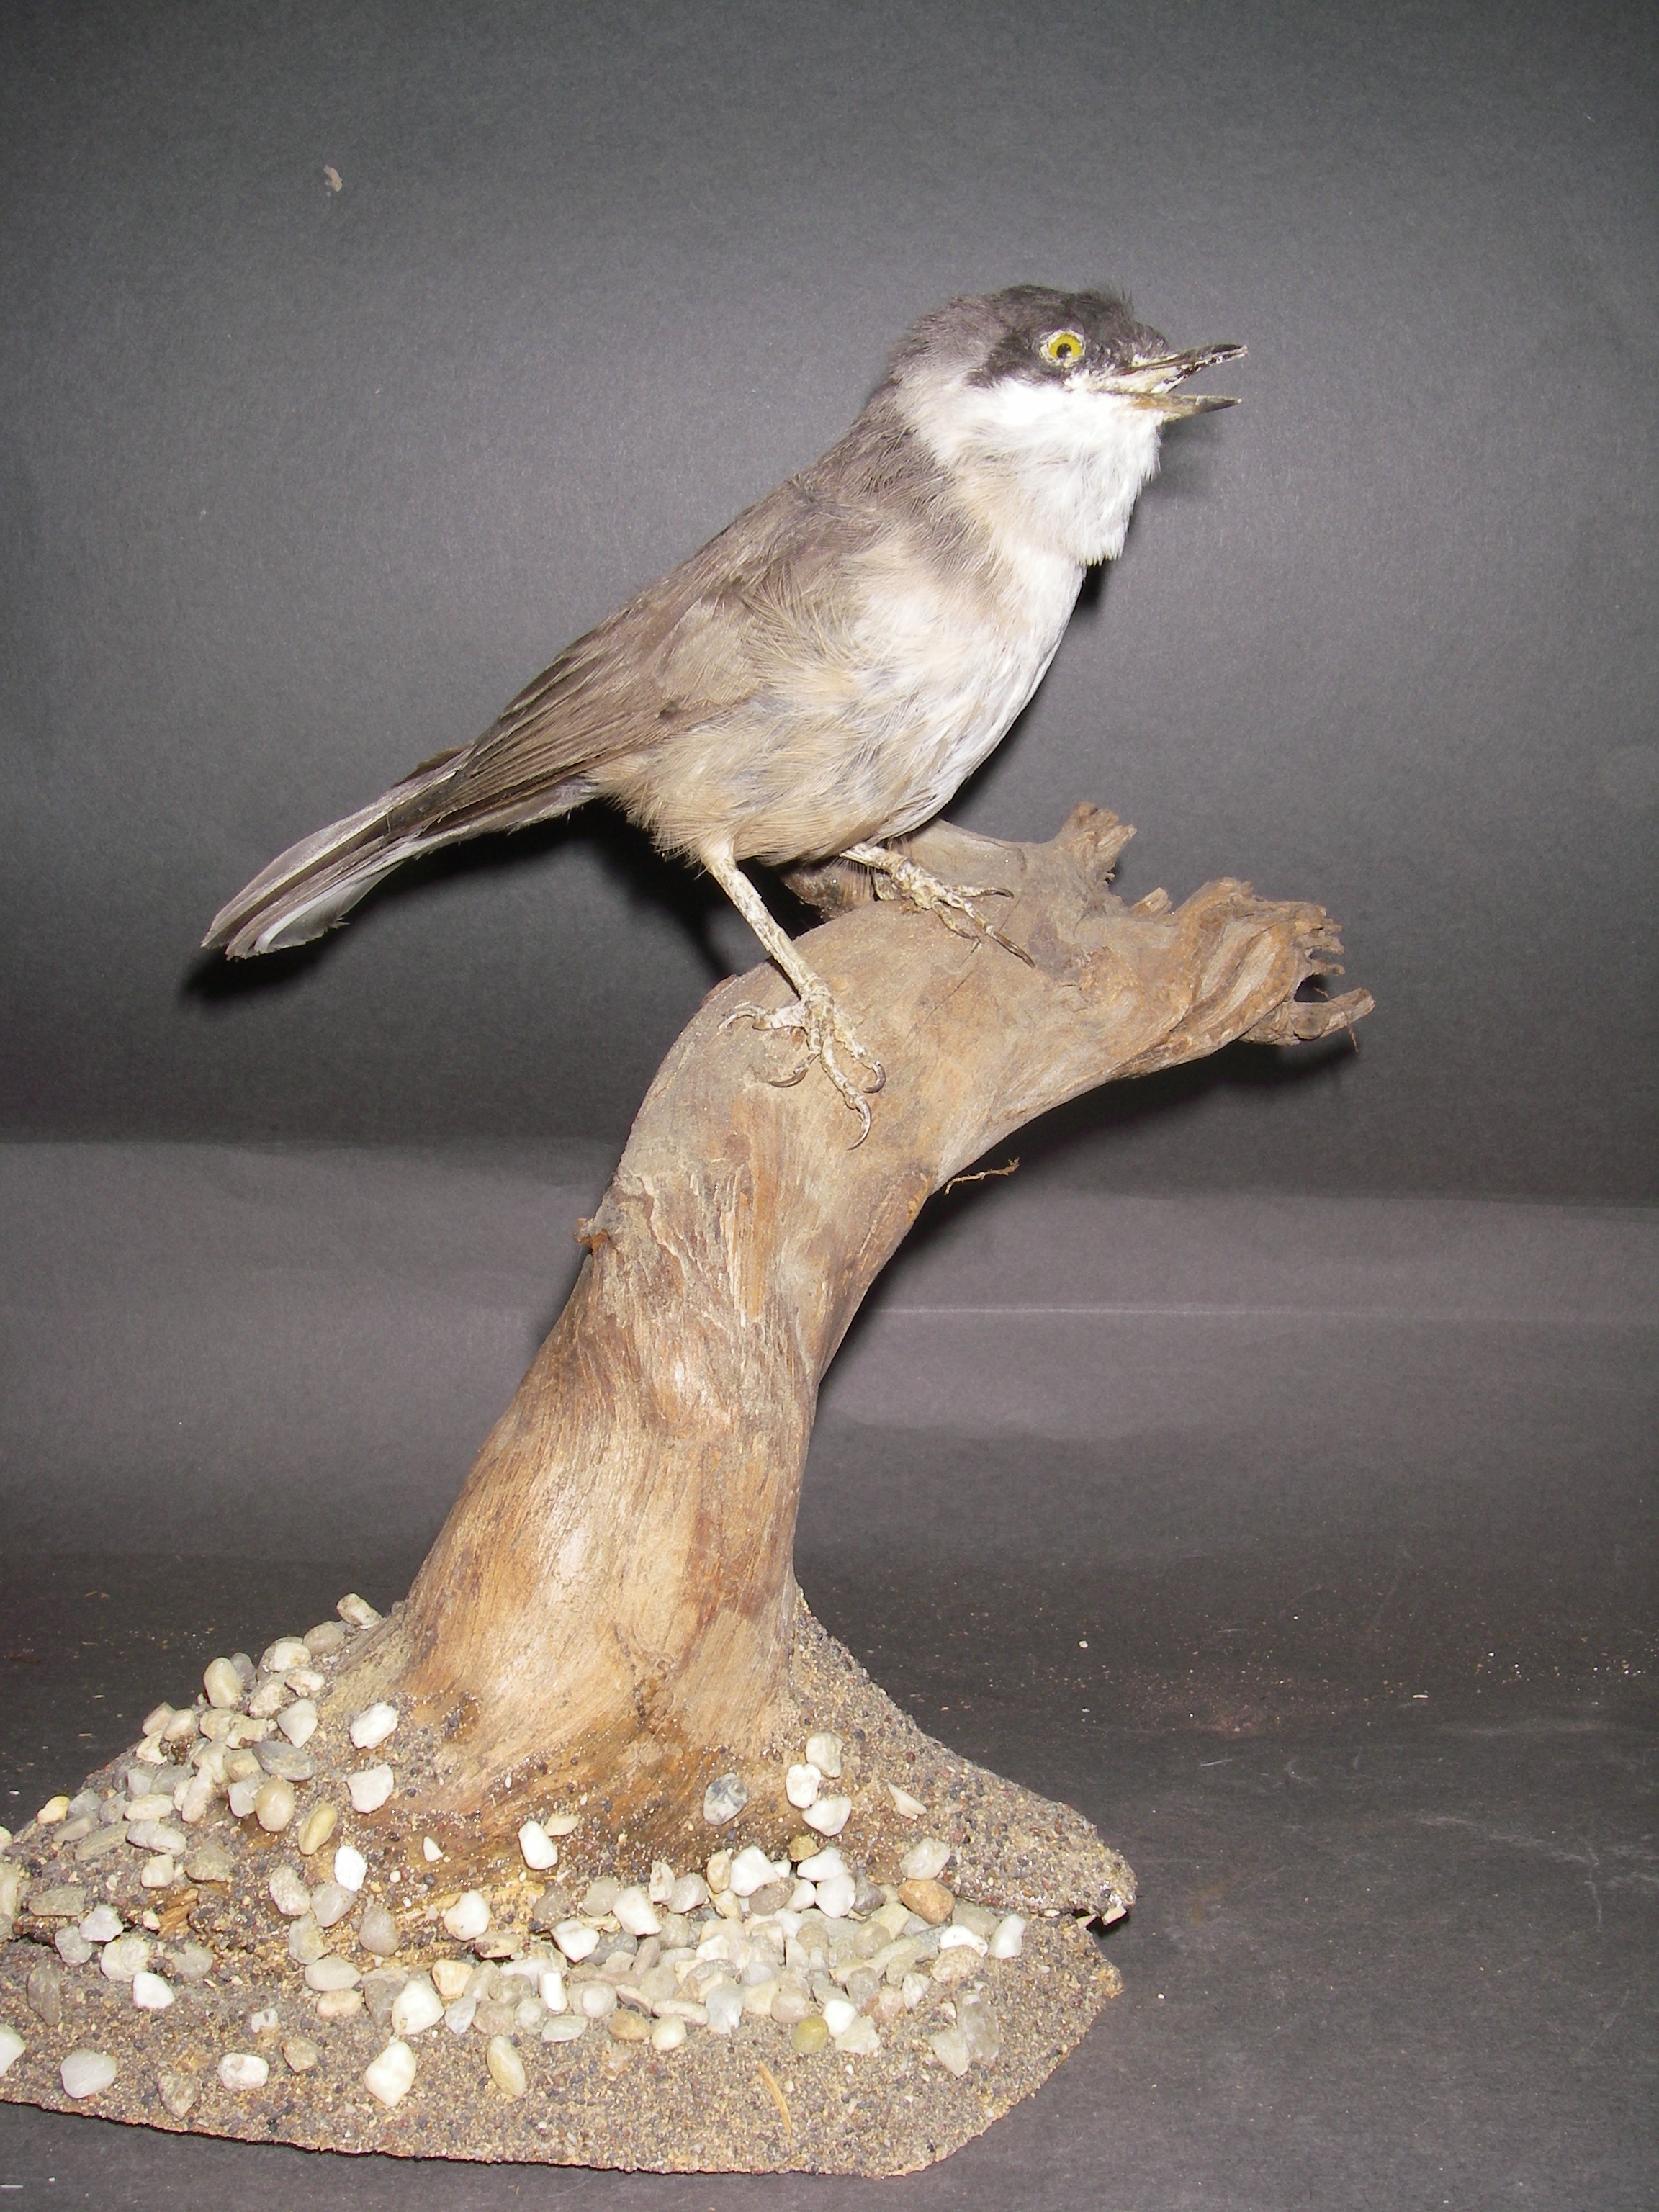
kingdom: Animalia
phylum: Chordata
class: Aves
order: Passeriformes
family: Sylviidae
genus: Sylvia
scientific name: Sylvia hortensis
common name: Orphean warbler
